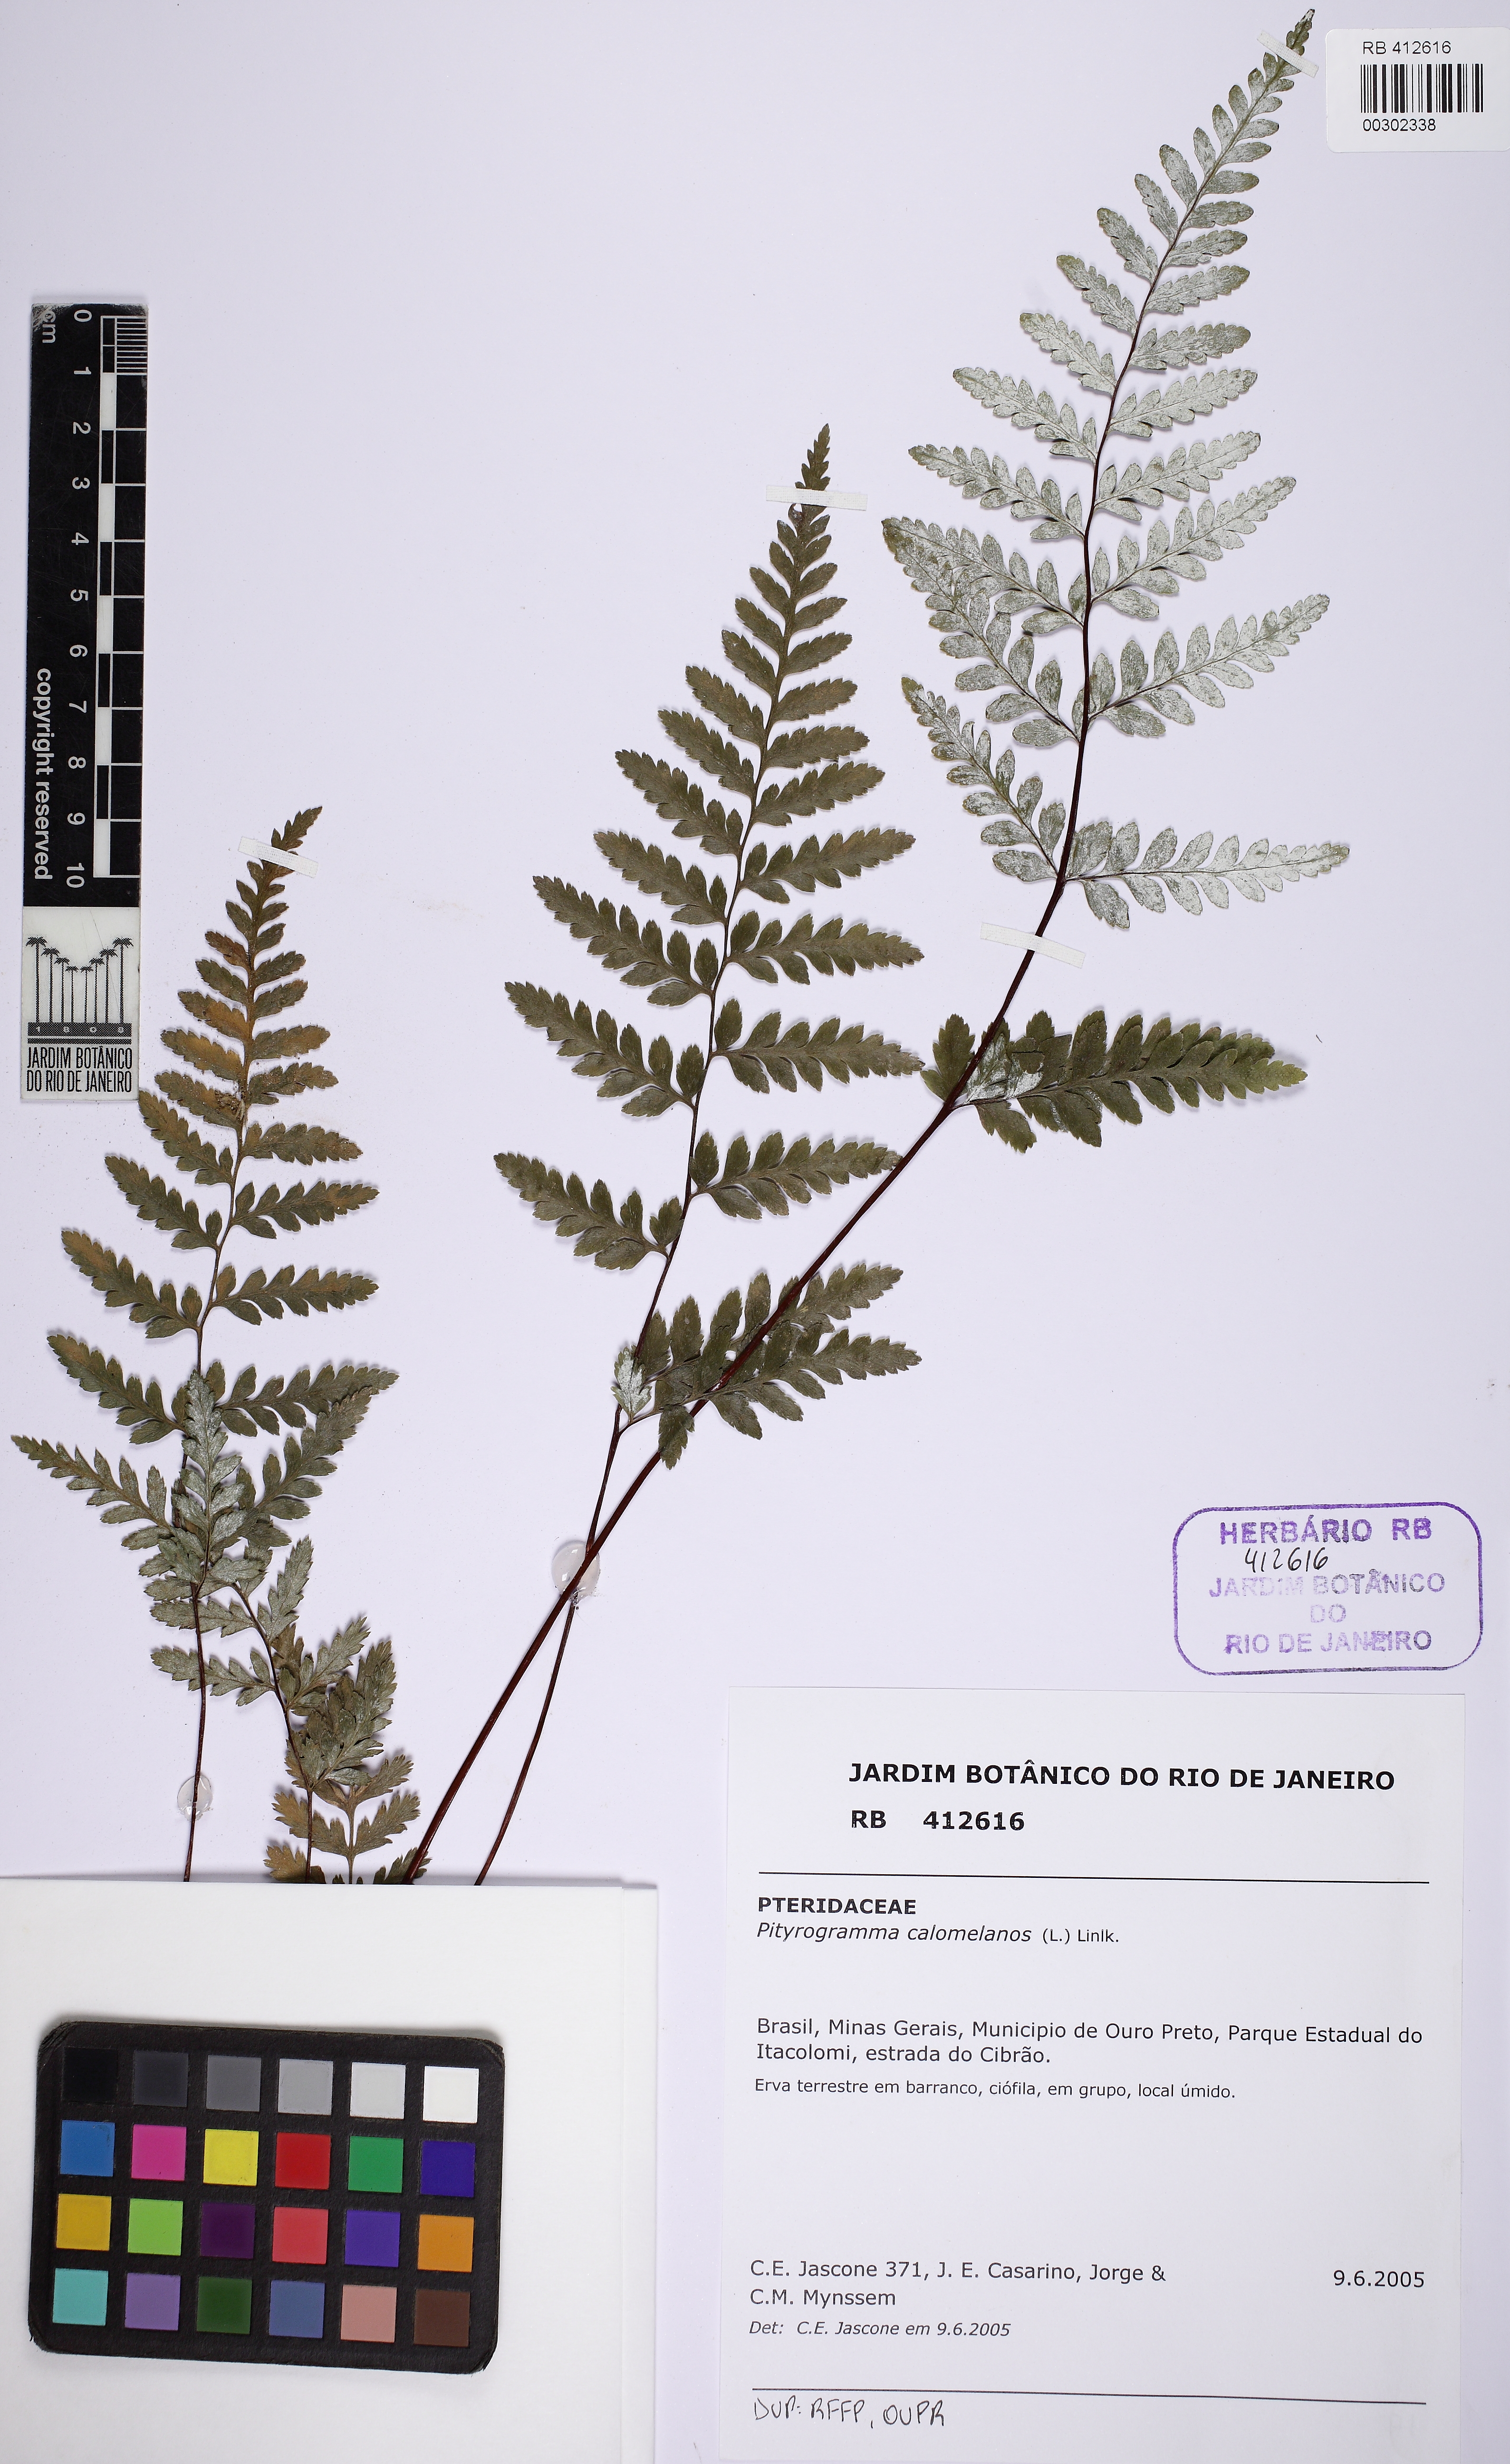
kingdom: Plantae
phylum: Tracheophyta
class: Polypodiopsida
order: Polypodiales
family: Pteridaceae
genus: Pityrogramma
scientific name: Pityrogramma calomelanos
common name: Dixie silverback fern
